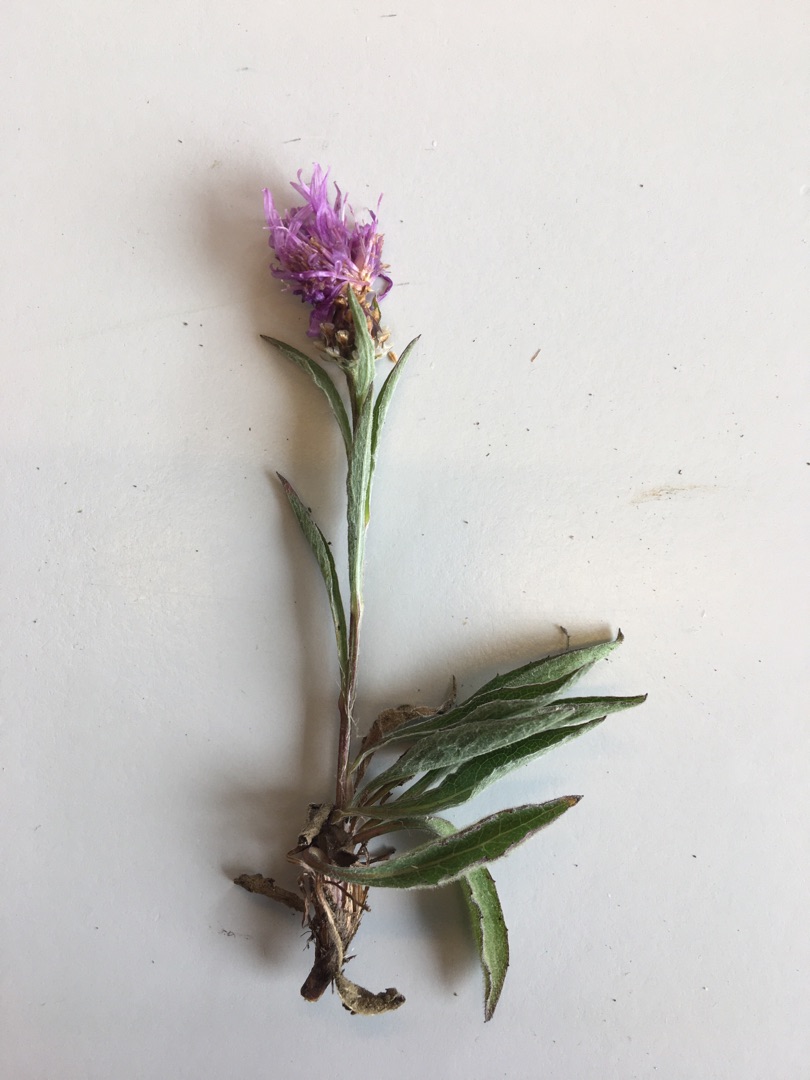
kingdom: Plantae
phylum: Tracheophyta
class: Magnoliopsida
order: Asterales
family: Asteraceae
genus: Centaurea
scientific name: Centaurea jacea
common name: Almindelig knopurt
